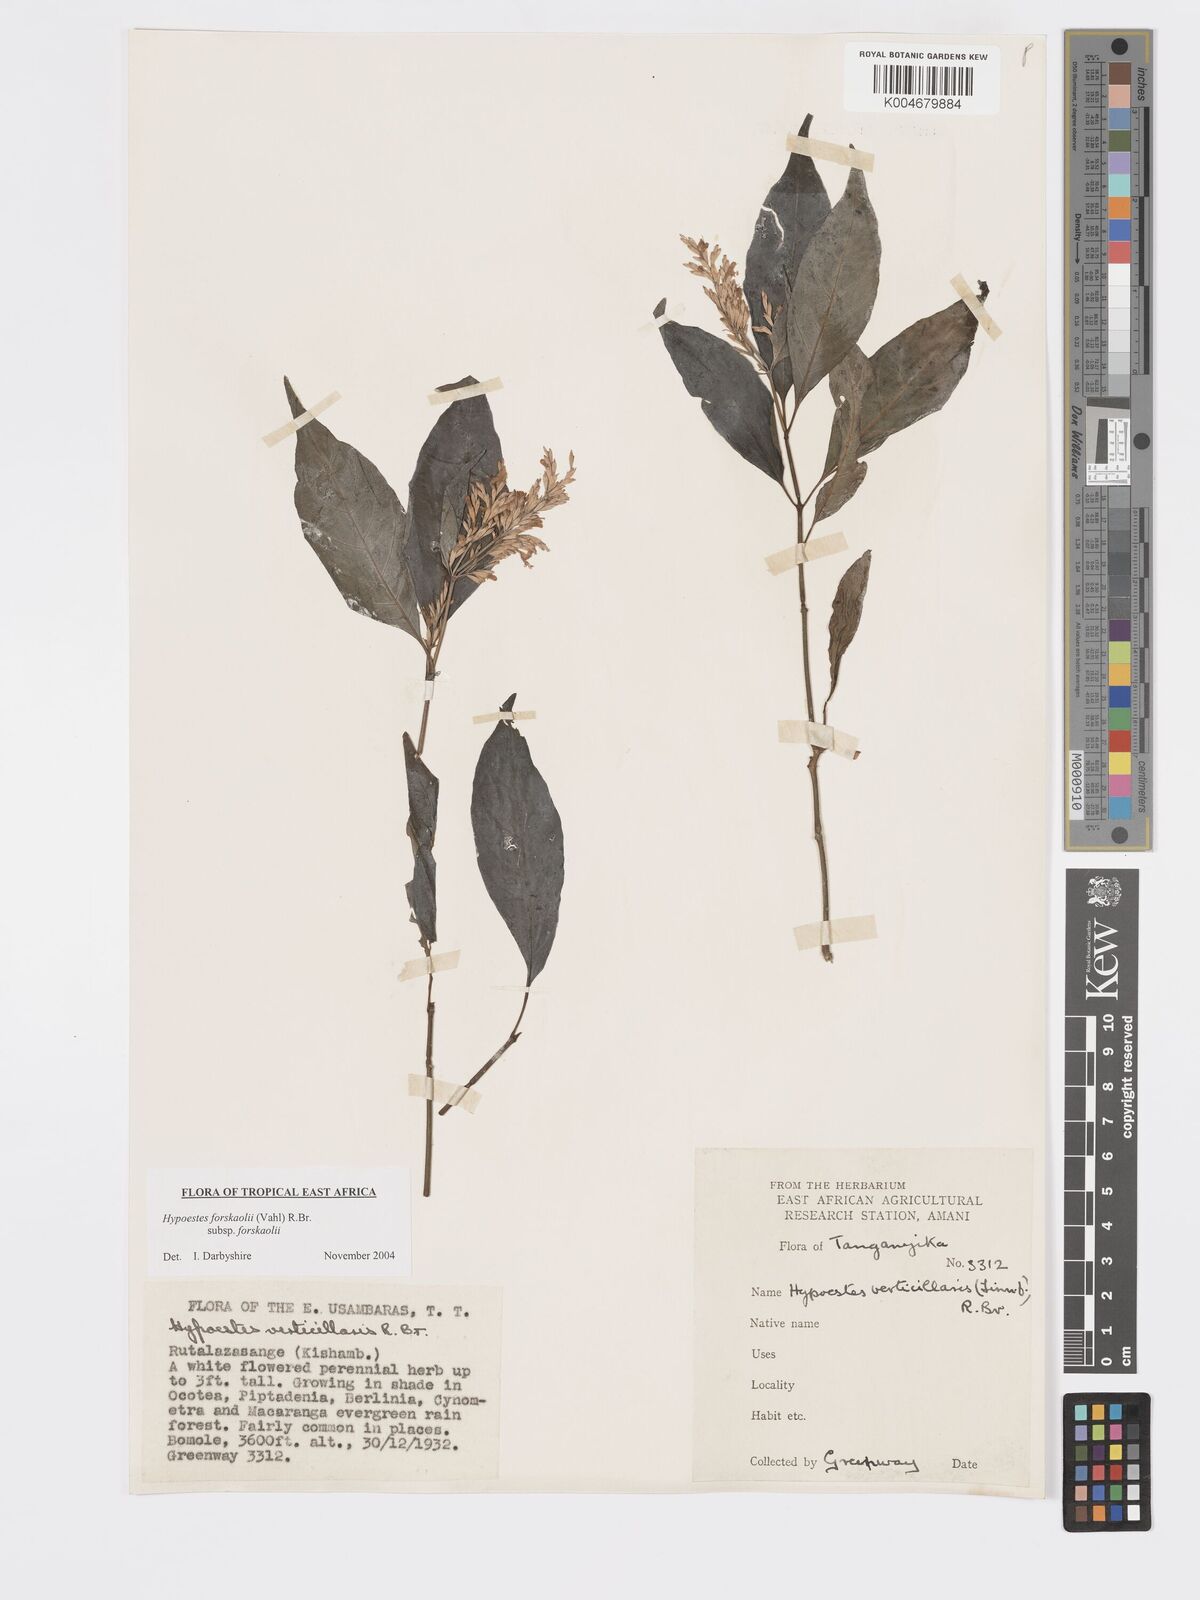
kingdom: Plantae
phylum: Tracheophyta
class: Magnoliopsida
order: Lamiales
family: Acanthaceae
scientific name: Acanthaceae
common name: Acanthaceae
